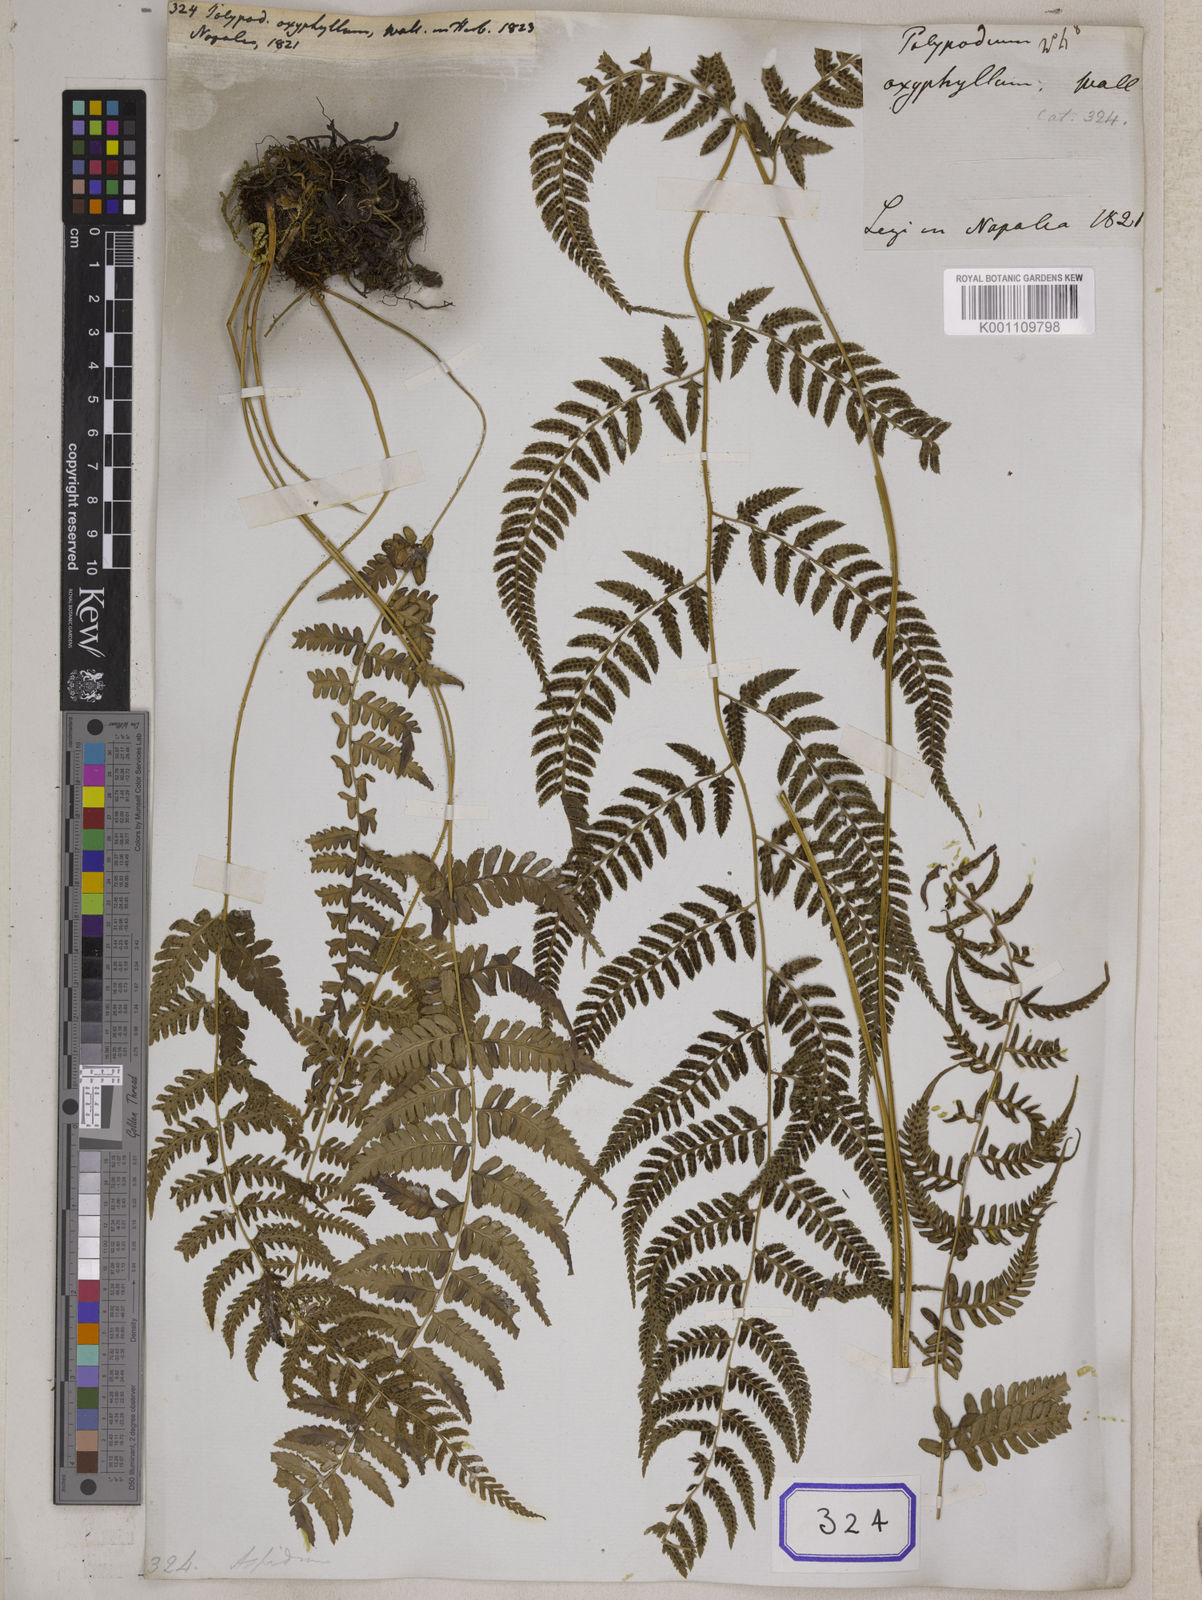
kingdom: Plantae
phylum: Tracheophyta
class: Polypodiopsida
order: Polypodiales
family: Athyriaceae
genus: Athyrium
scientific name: Athyrium drepanopteron
